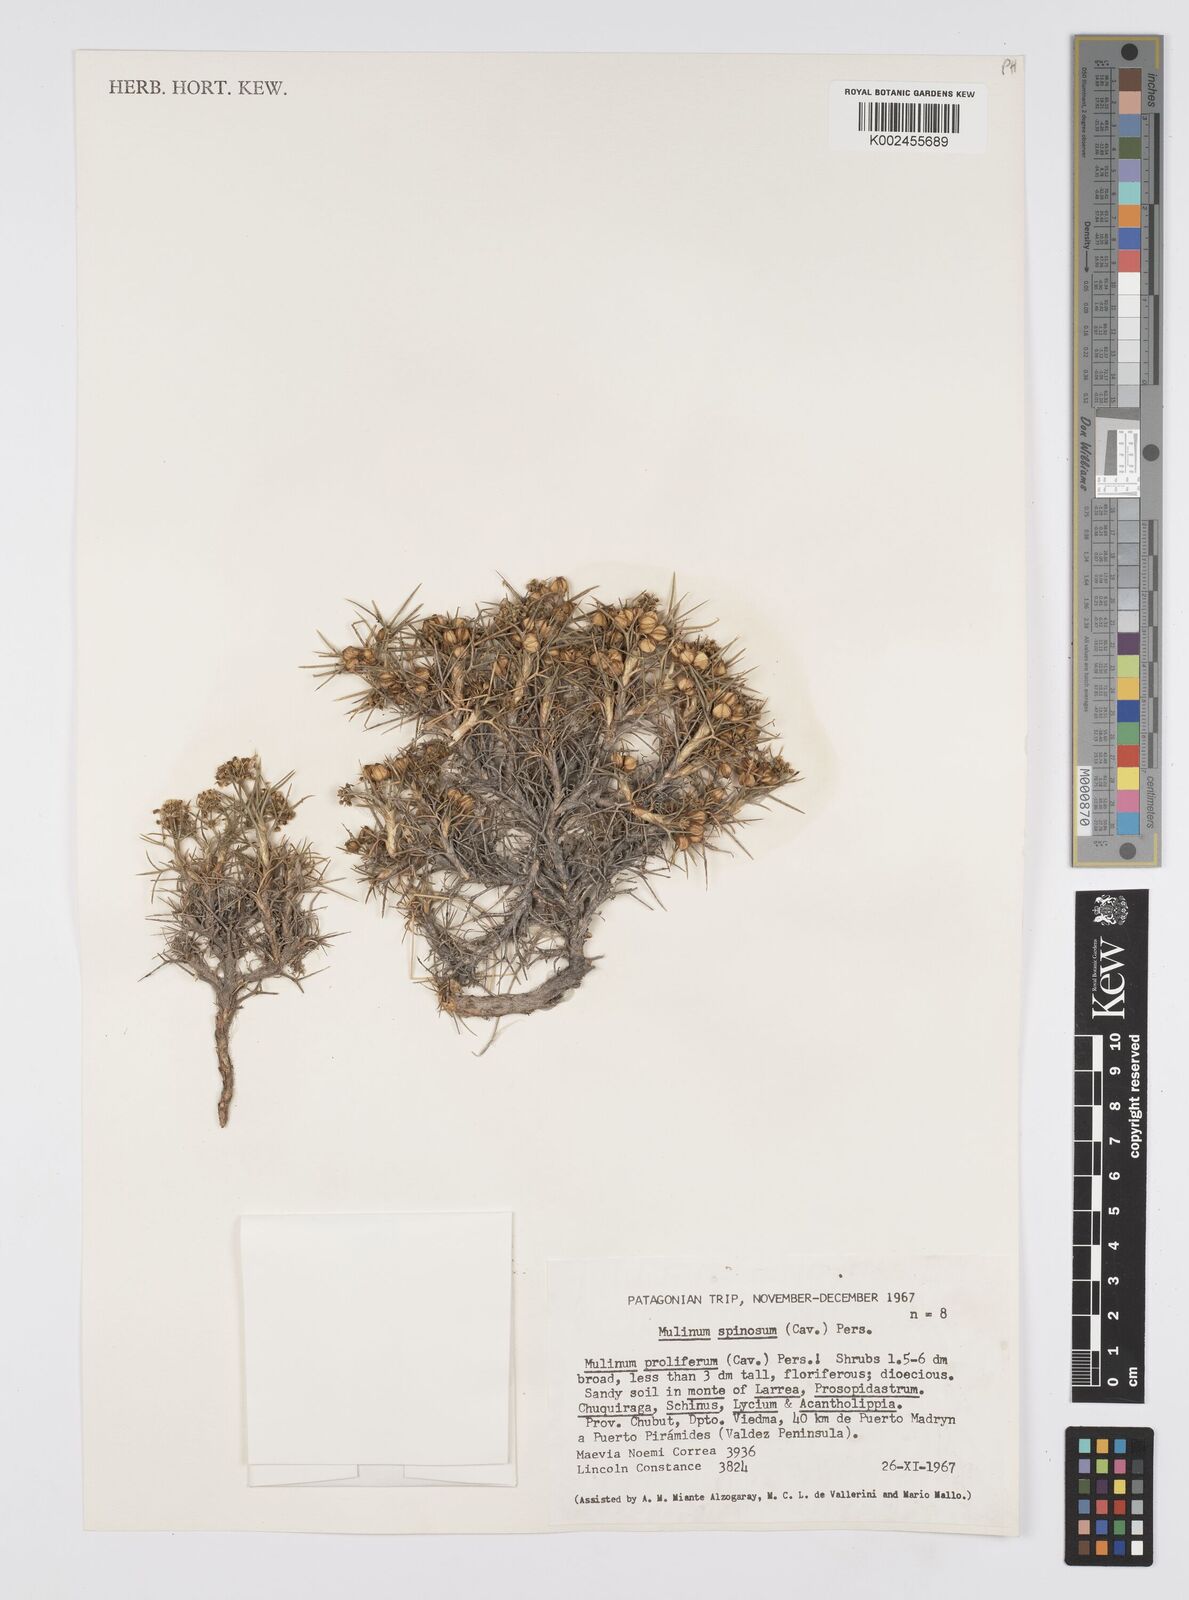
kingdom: Plantae
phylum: Tracheophyta
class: Magnoliopsida
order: Apiales
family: Apiaceae
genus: Azorella
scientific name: Azorella prolifera
